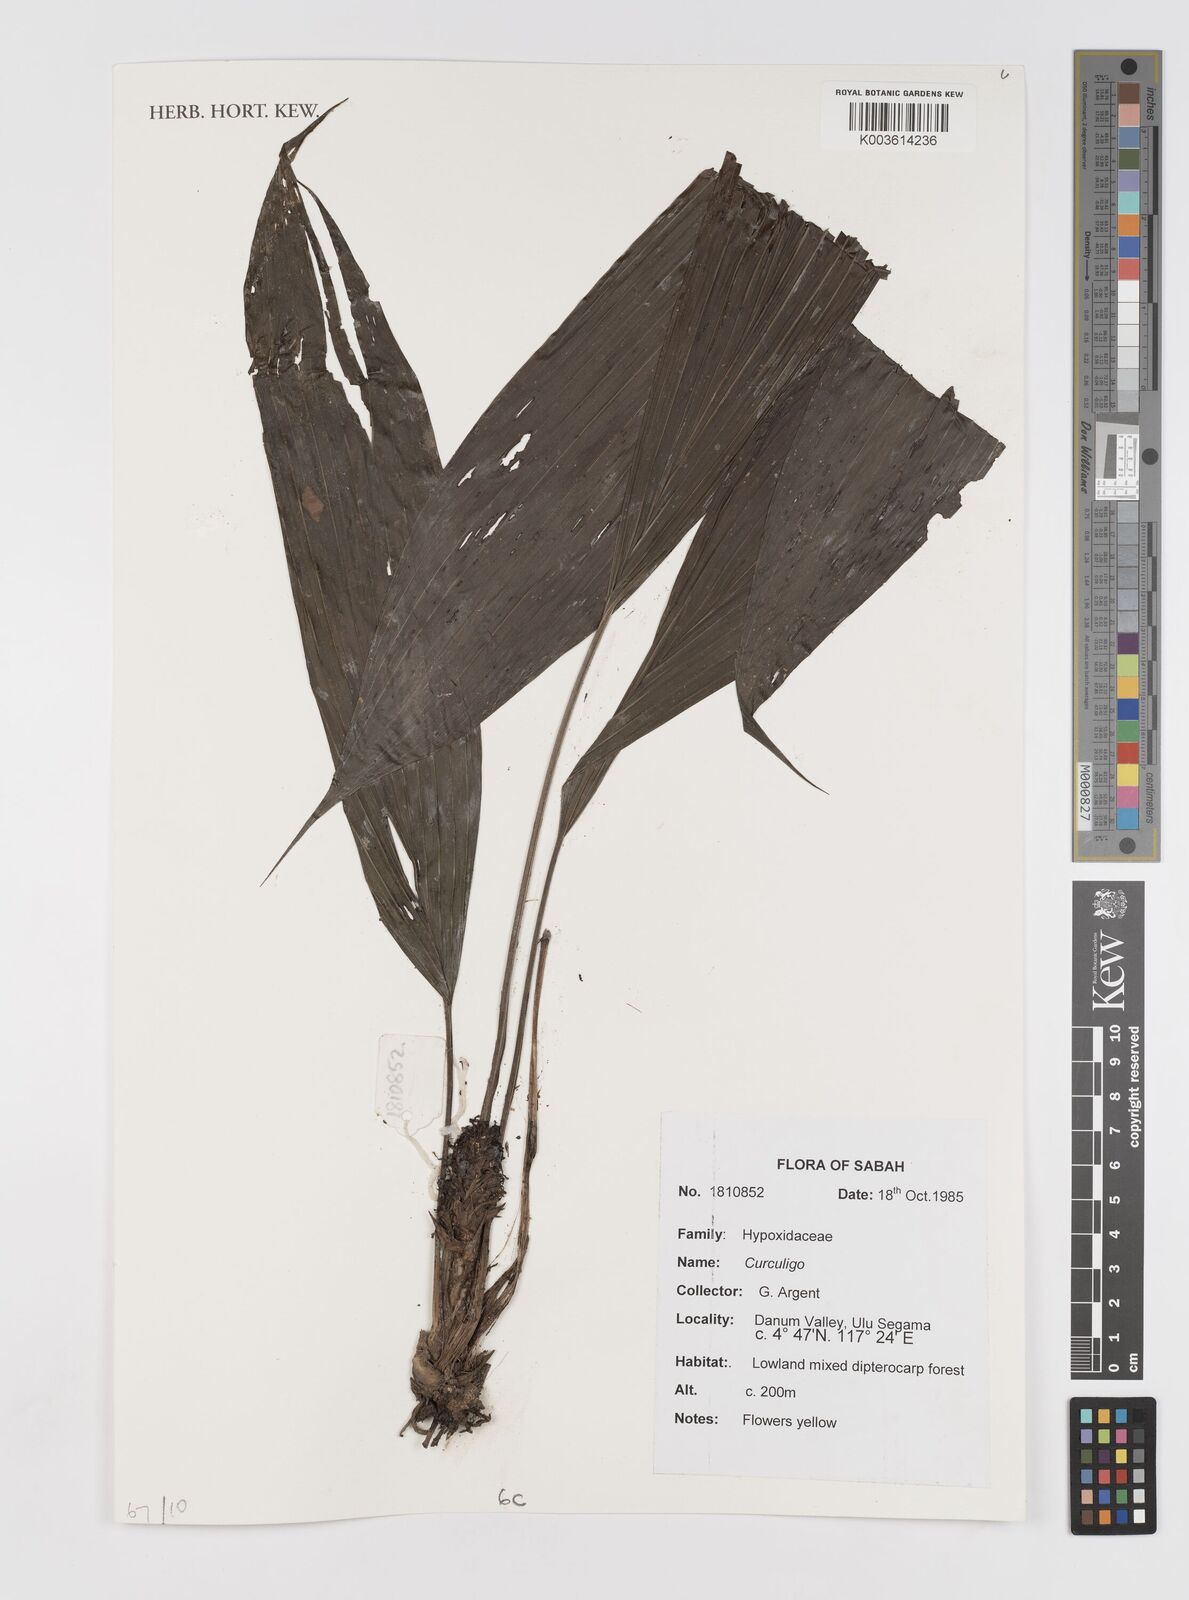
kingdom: Plantae
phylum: Tracheophyta
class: Liliopsida
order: Asparagales
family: Hypoxidaceae
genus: Curculigo
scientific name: Curculigo
